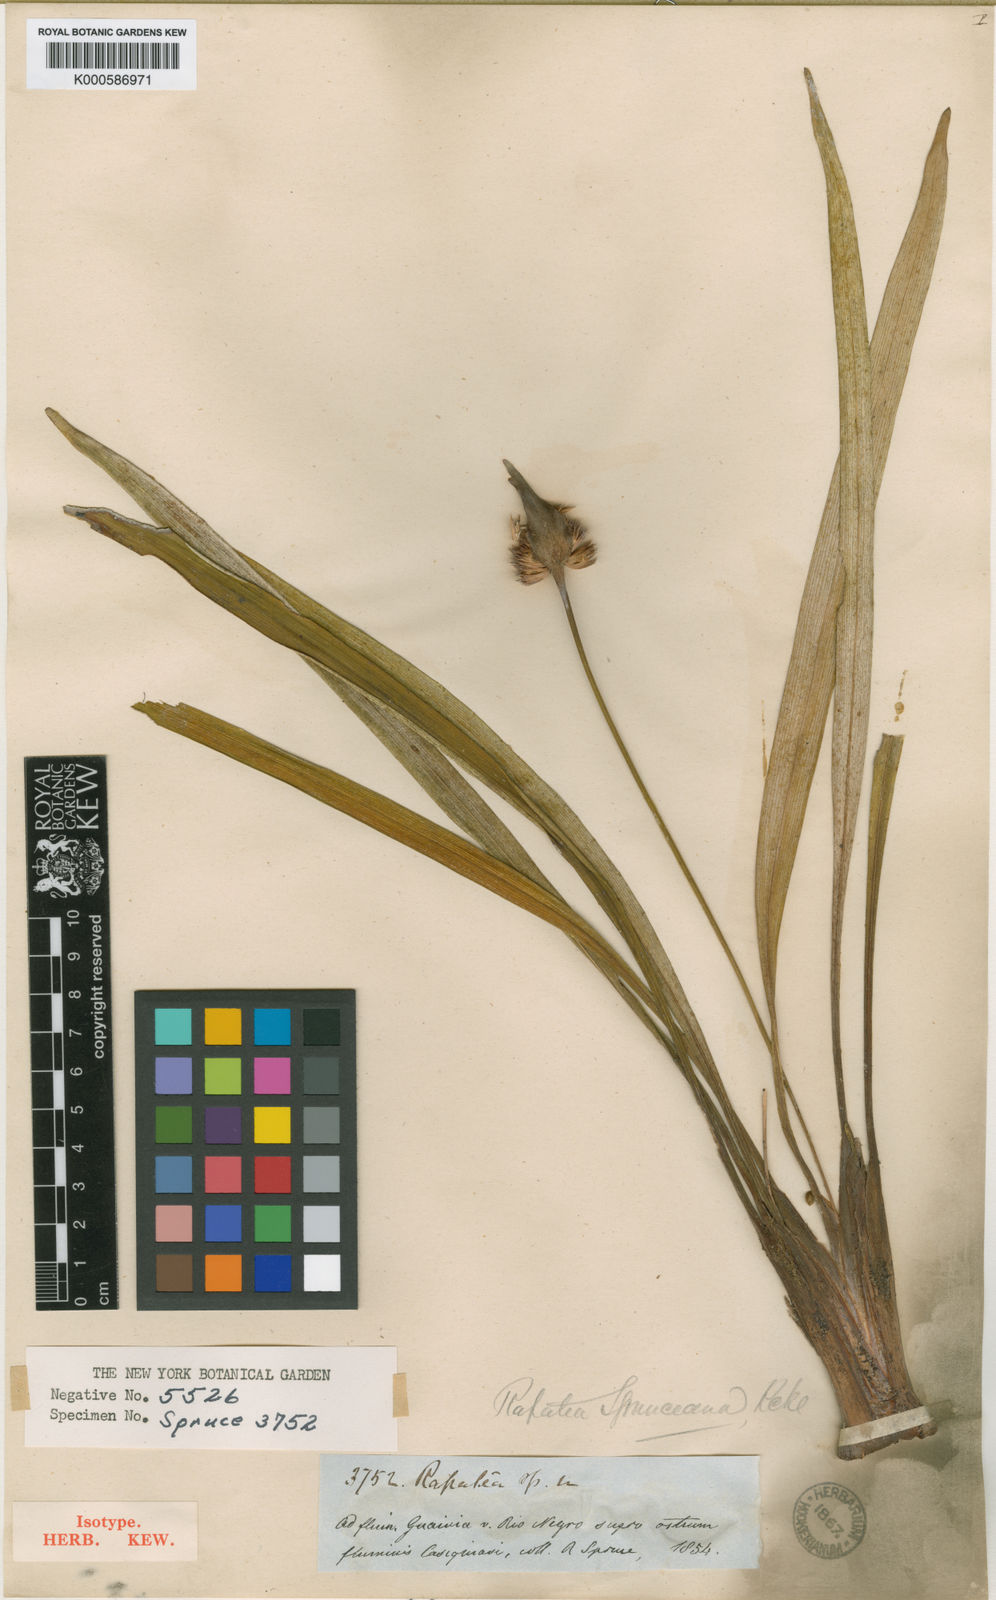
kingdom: Plantae
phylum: Tracheophyta
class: Liliopsida
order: Poales
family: Rapateaceae
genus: Rapatea
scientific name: Rapatea
